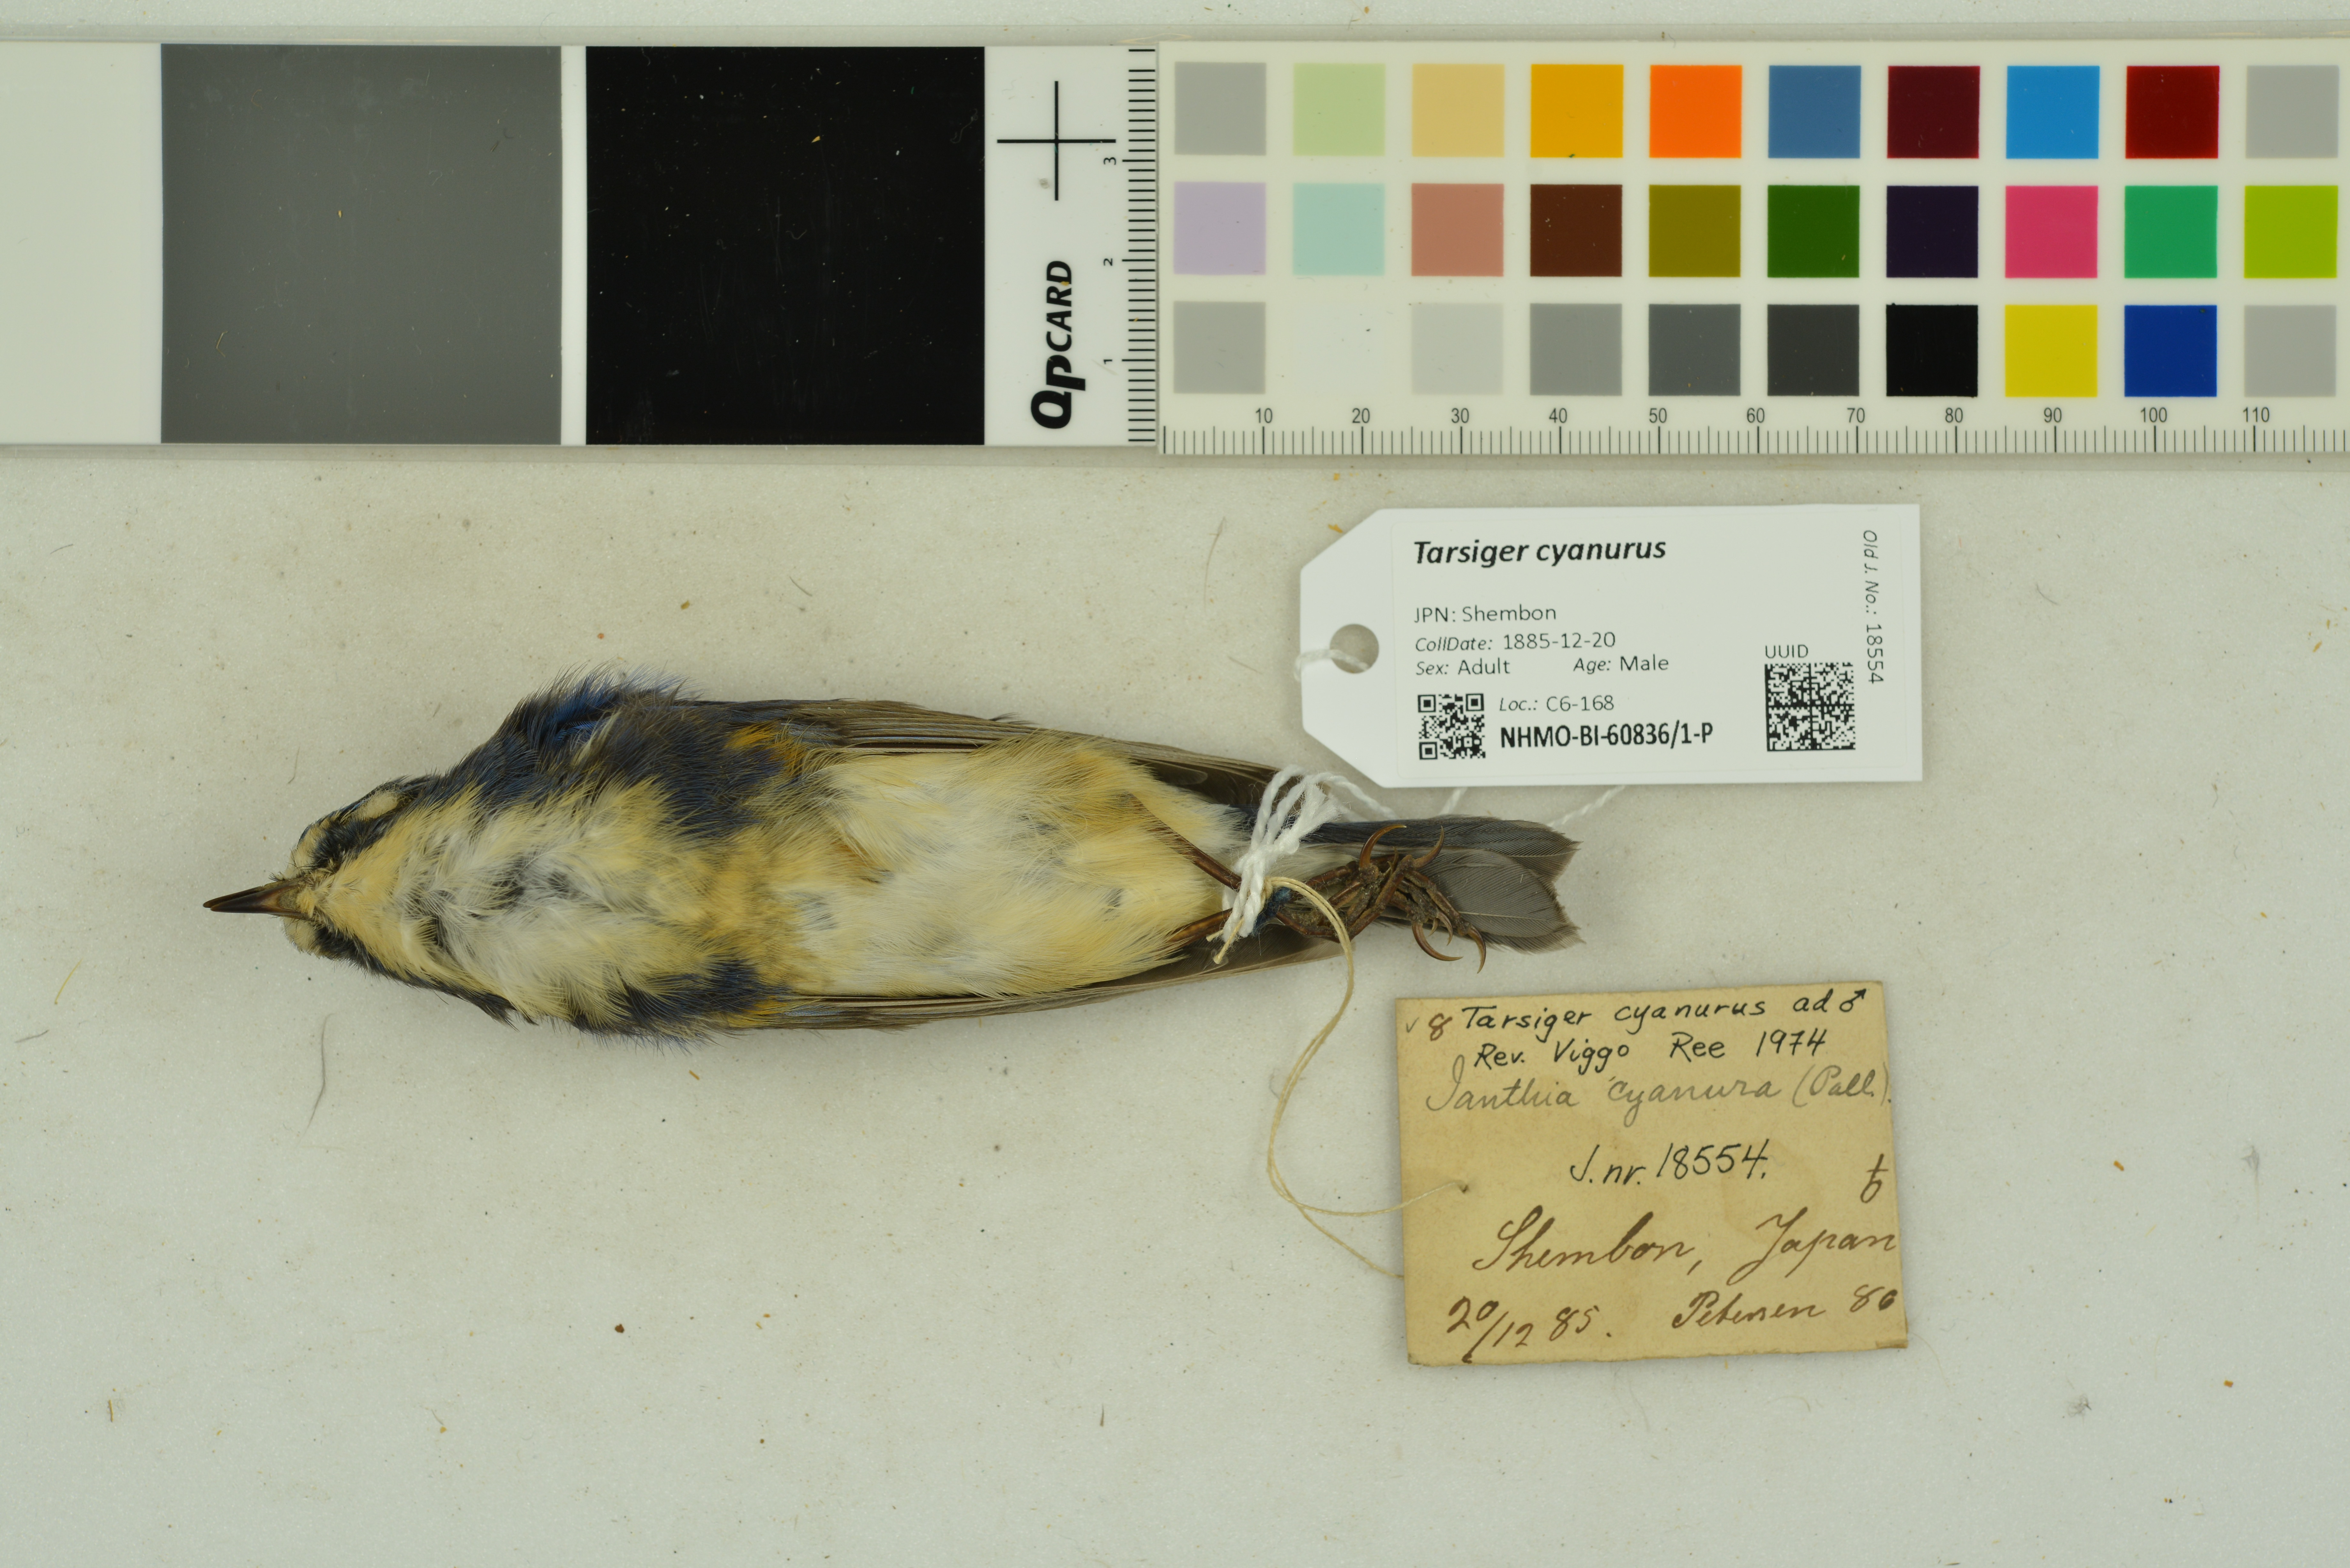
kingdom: Animalia
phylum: Chordata
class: Aves
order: Passeriformes
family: Muscicapidae
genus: Tarsiger
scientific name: Tarsiger cyanurus
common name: Red-flanked bluetail
